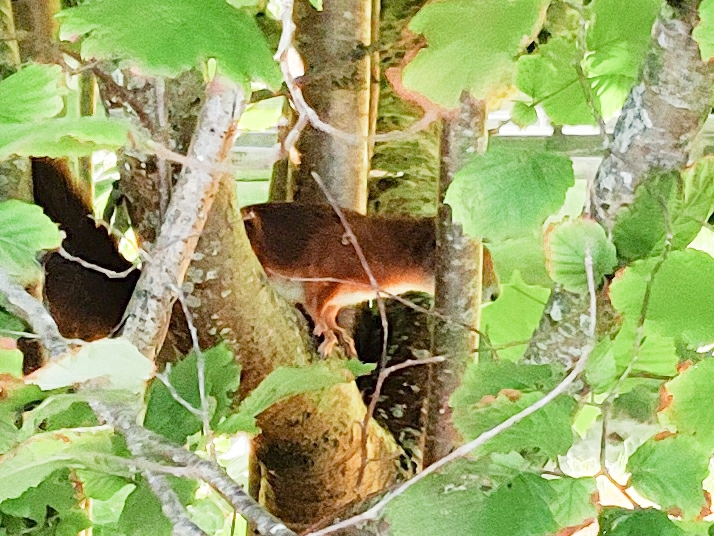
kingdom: Animalia
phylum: Chordata
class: Mammalia
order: Rodentia
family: Sciuridae
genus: Sciurus
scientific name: Sciurus vulgaris
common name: Egern
